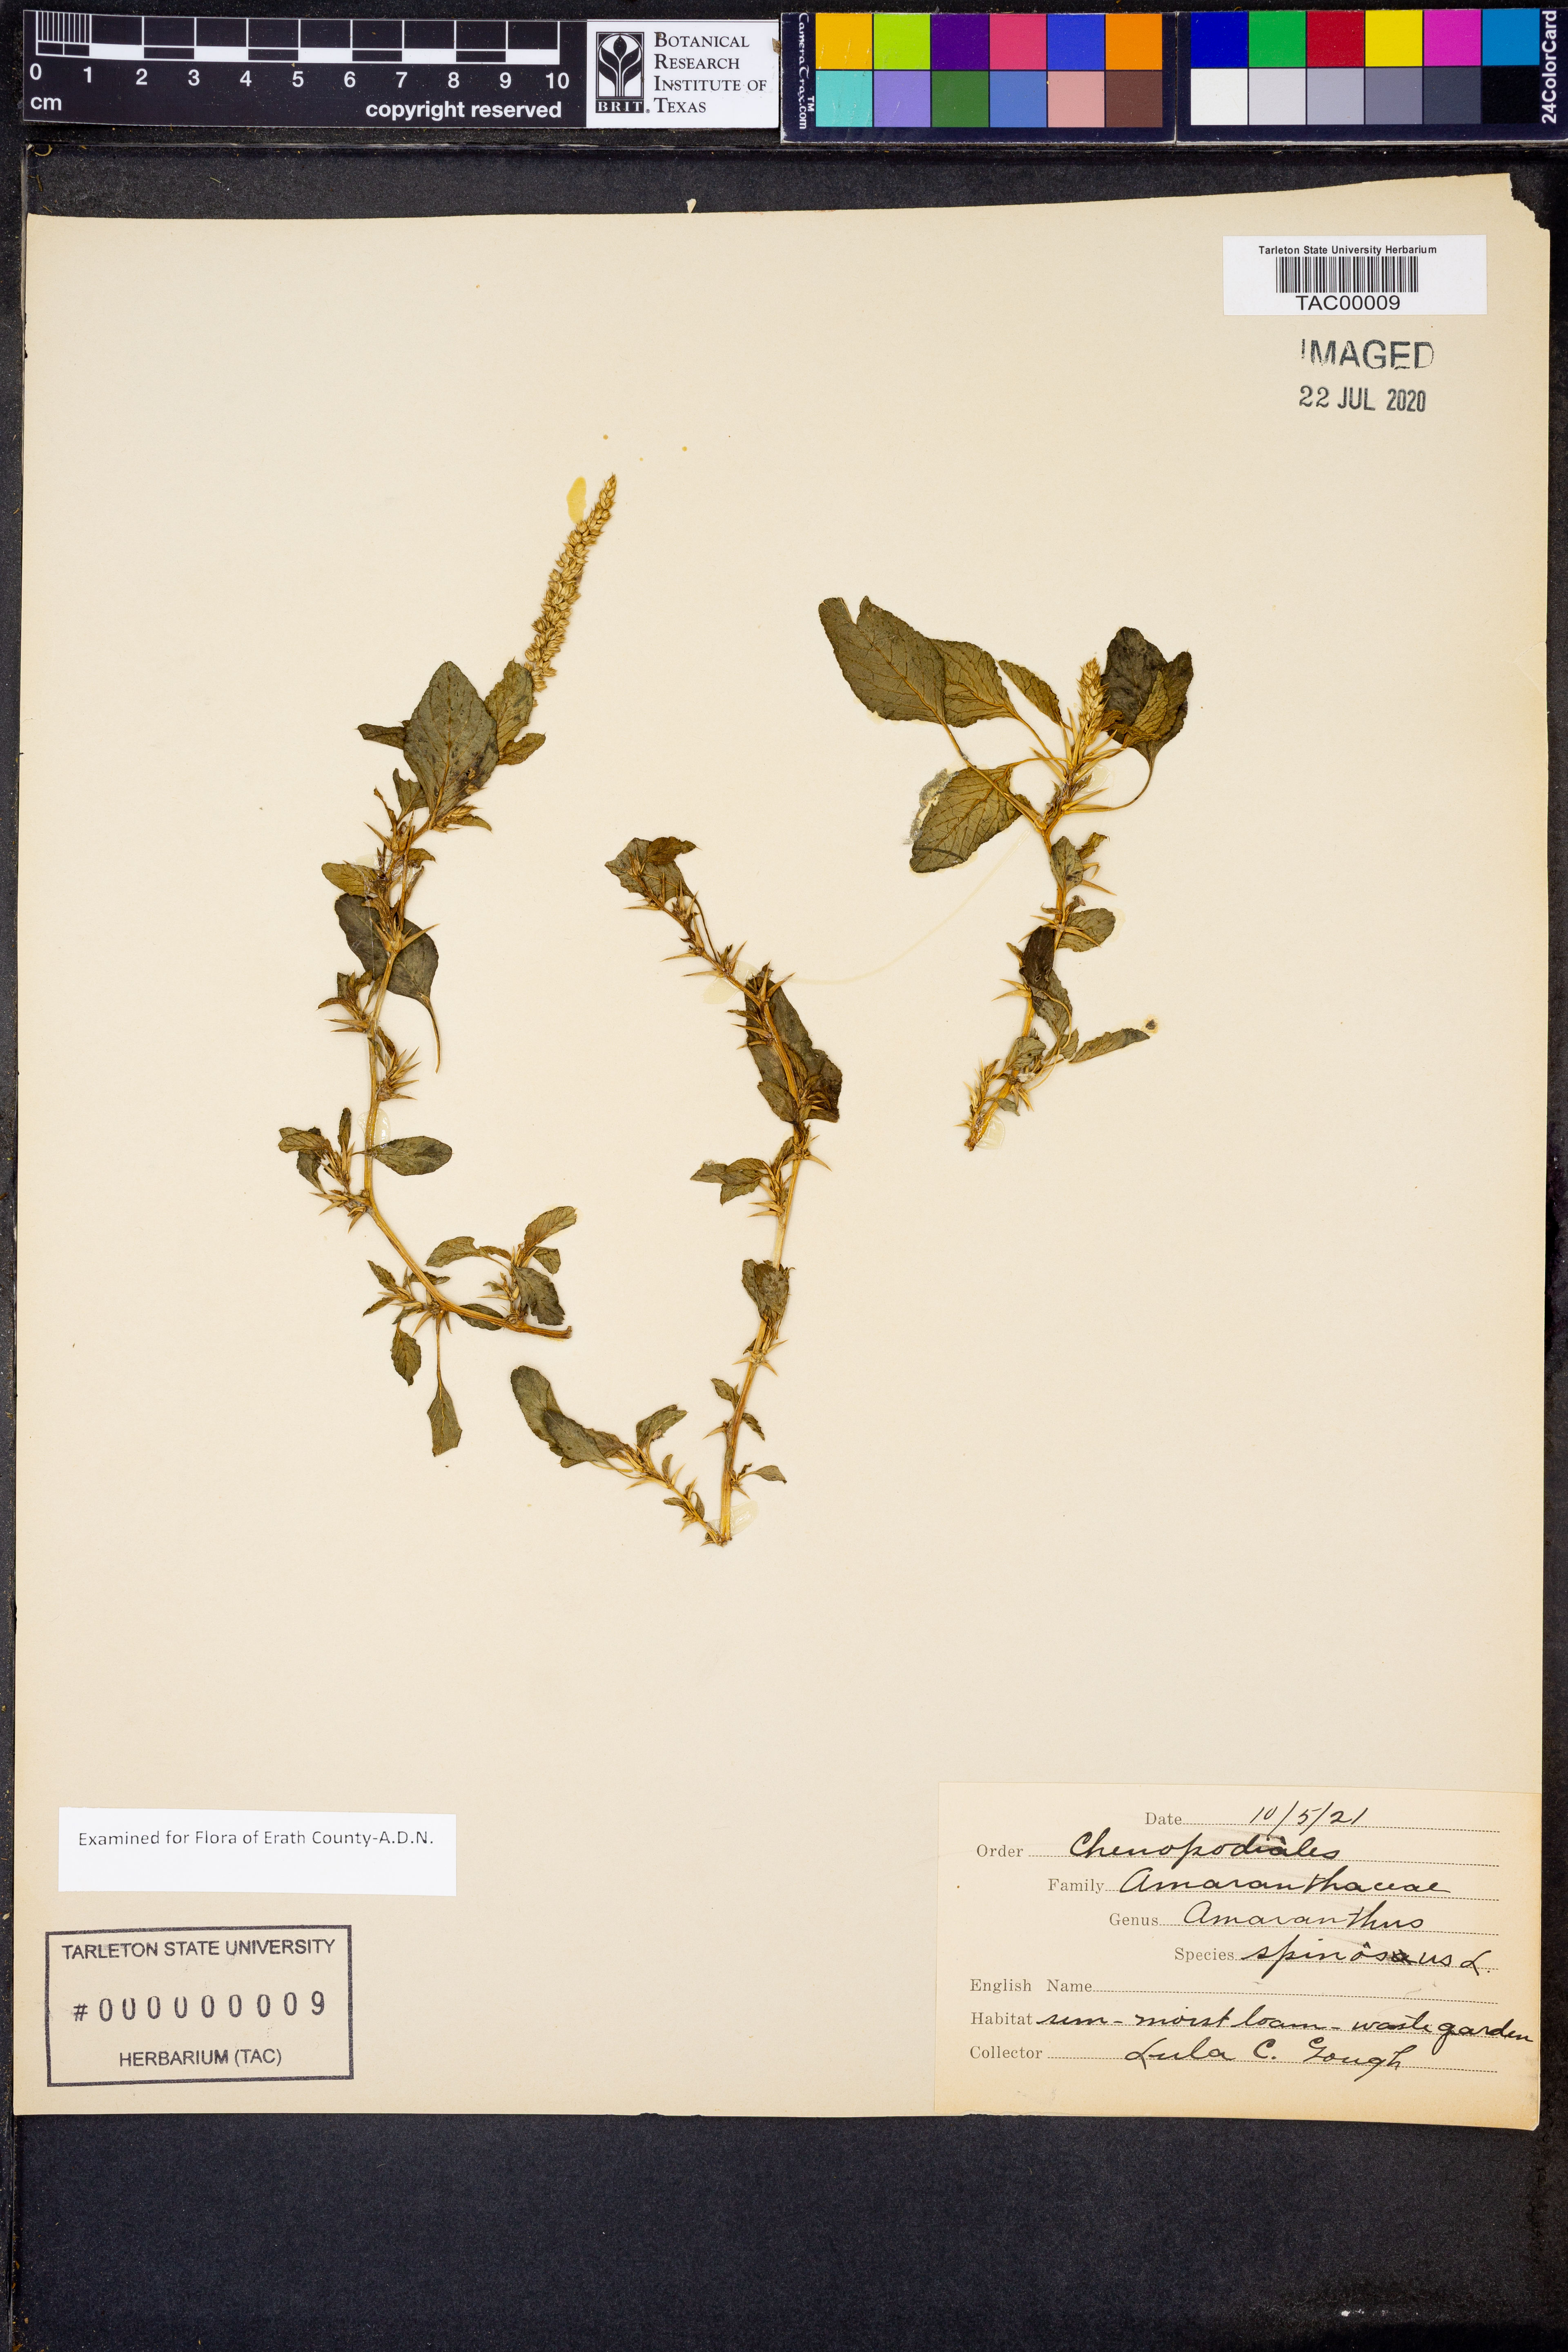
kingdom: Plantae
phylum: Tracheophyta
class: Magnoliopsida
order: Caryophyllales
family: Amaranthaceae
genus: Amaranthus
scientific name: Amaranthus spinosus
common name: Spiny amaranth
